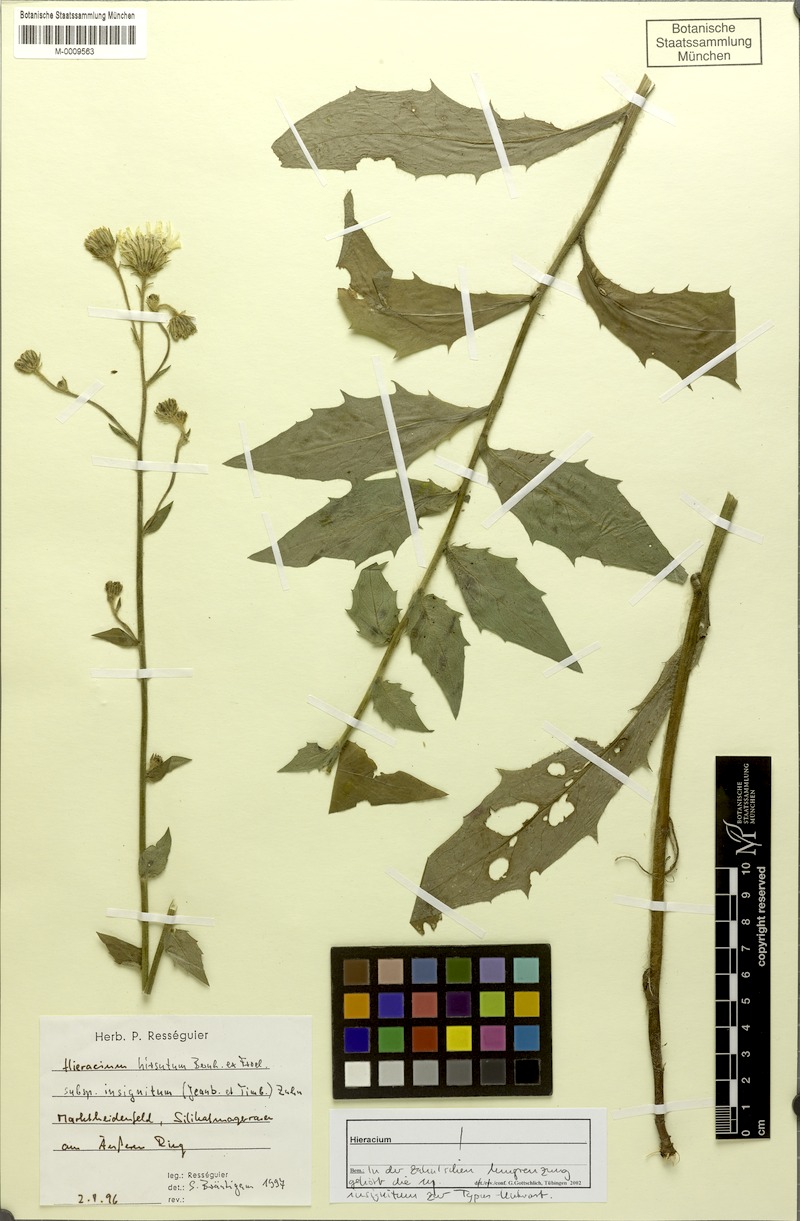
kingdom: Plantae
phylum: Tracheophyta
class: Magnoliopsida
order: Asterales
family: Asteraceae
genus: Hieracium
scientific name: Hieracium hirsutum
